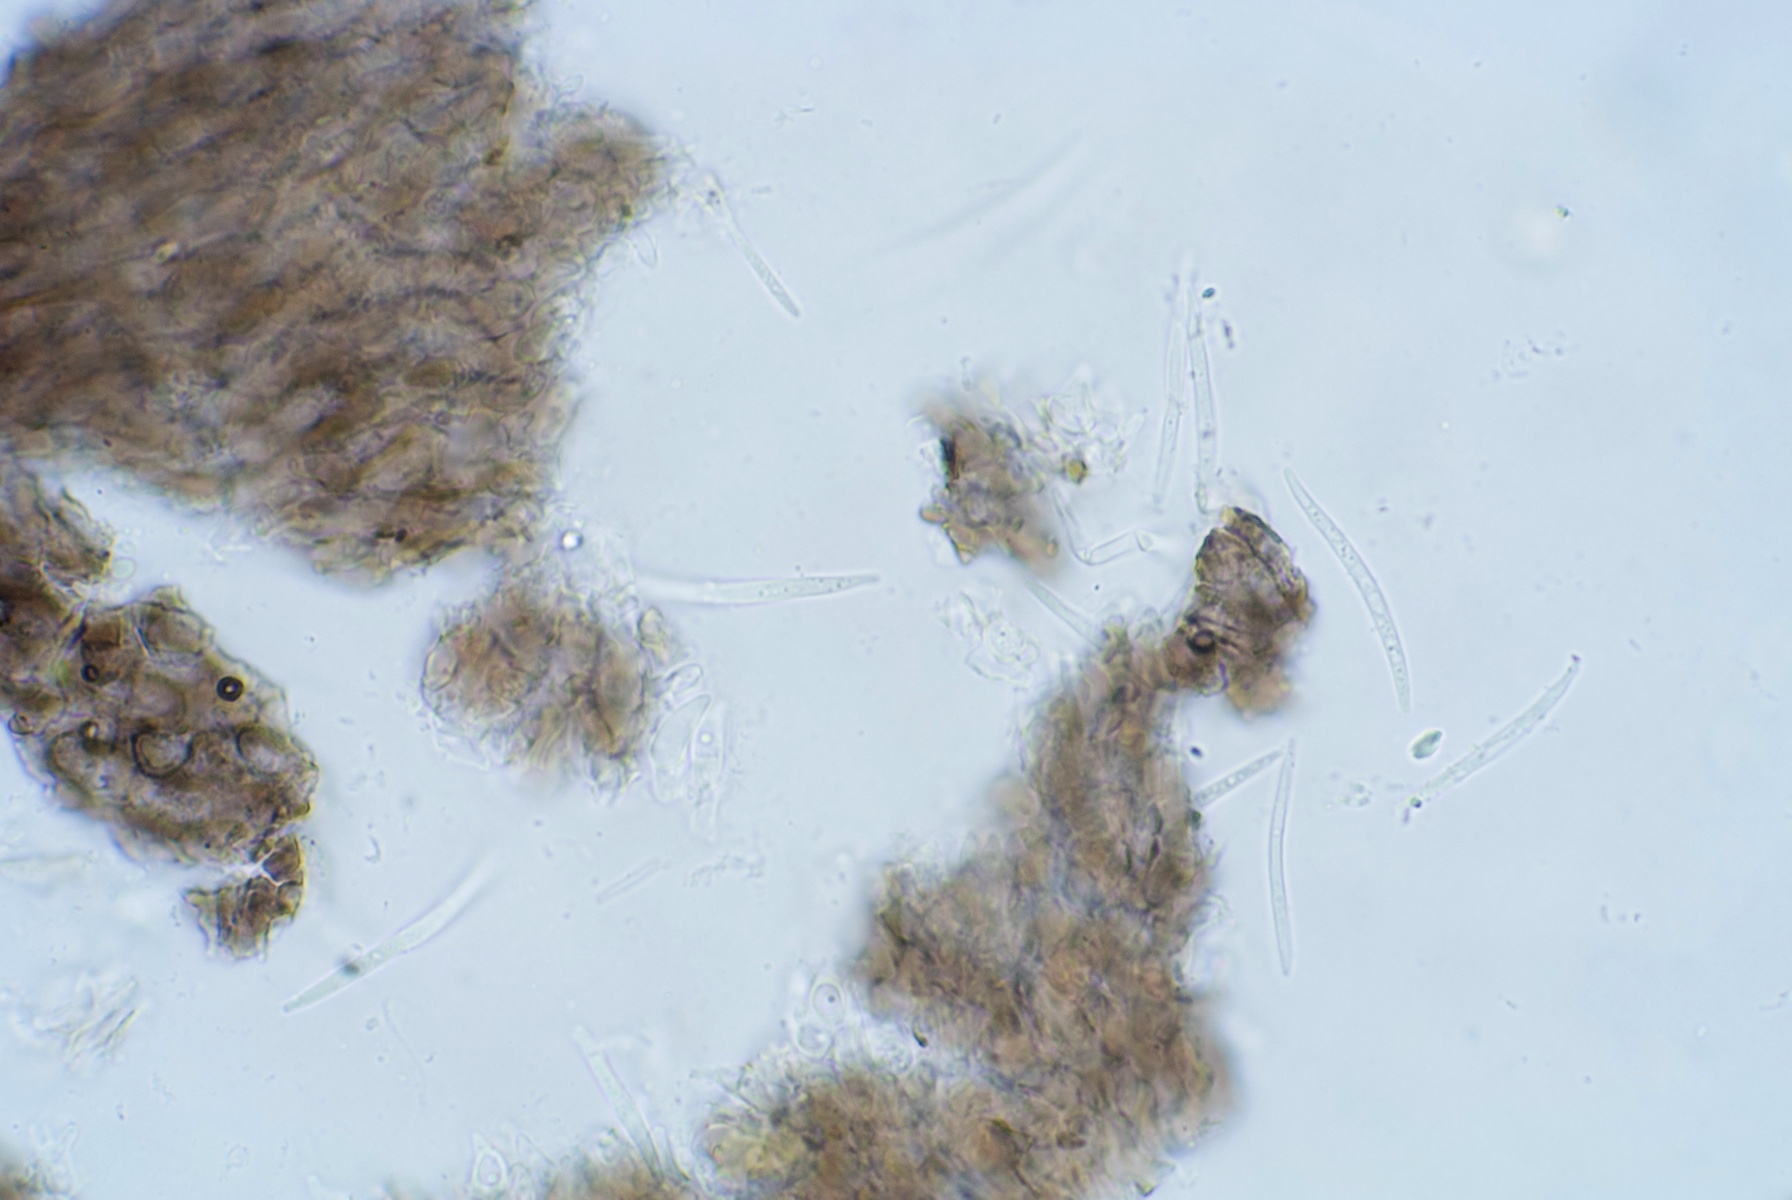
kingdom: Fungi
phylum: Ascomycota
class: Leotiomycetes
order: Chaetomellales
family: Chaetomellaceae
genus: Sphaerographium
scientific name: Sphaerographium squarrosum
